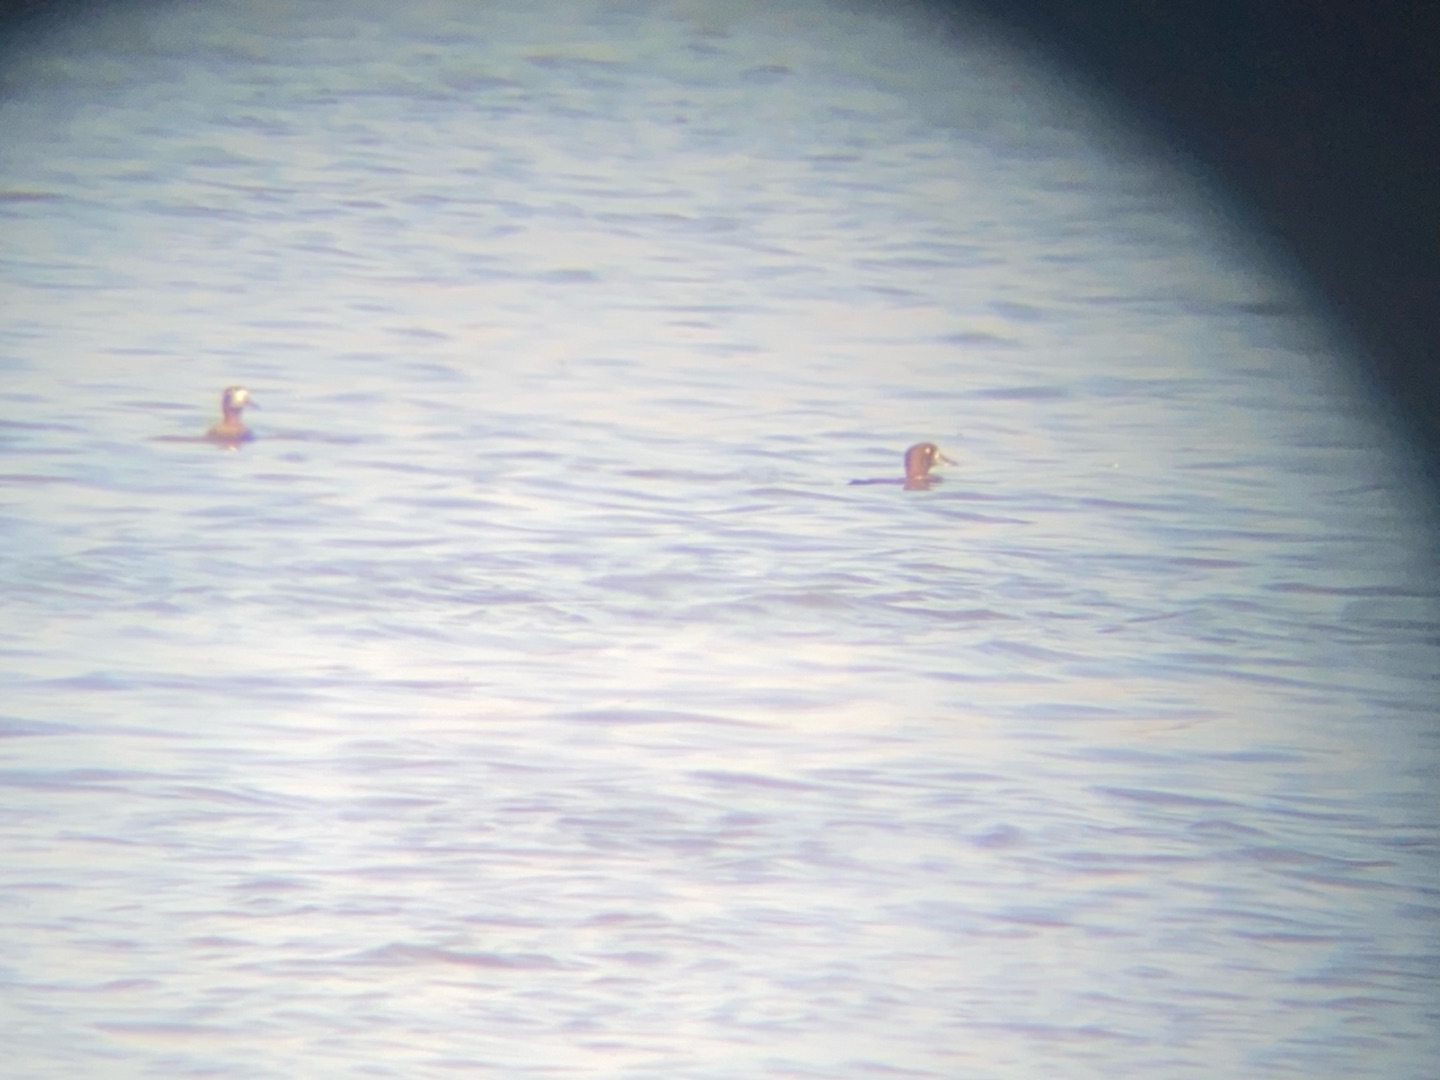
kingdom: Animalia
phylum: Chordata
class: Aves
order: Anseriformes
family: Anatidae
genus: Aythya
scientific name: Aythya marila
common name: Bjergand
